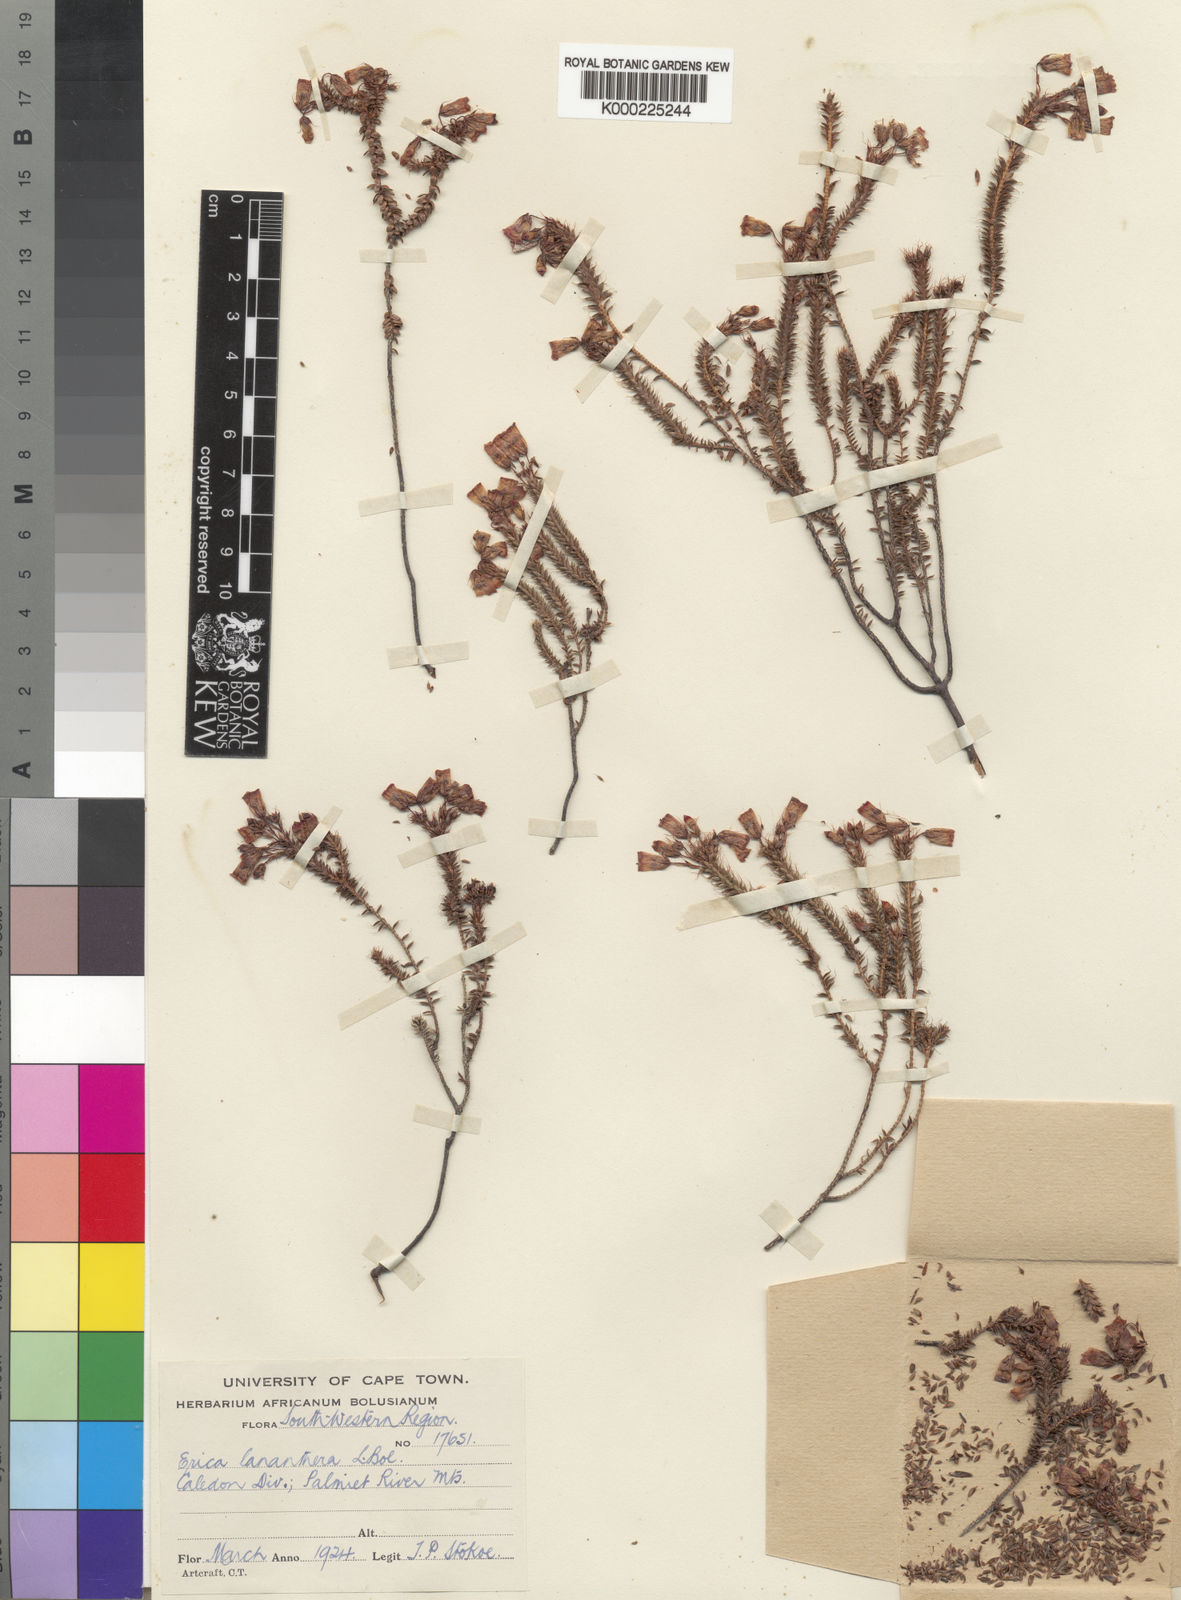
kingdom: Plantae
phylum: Tracheophyta
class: Magnoliopsida
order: Ericales
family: Ericaceae
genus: Erica
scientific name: Erica lananthera
